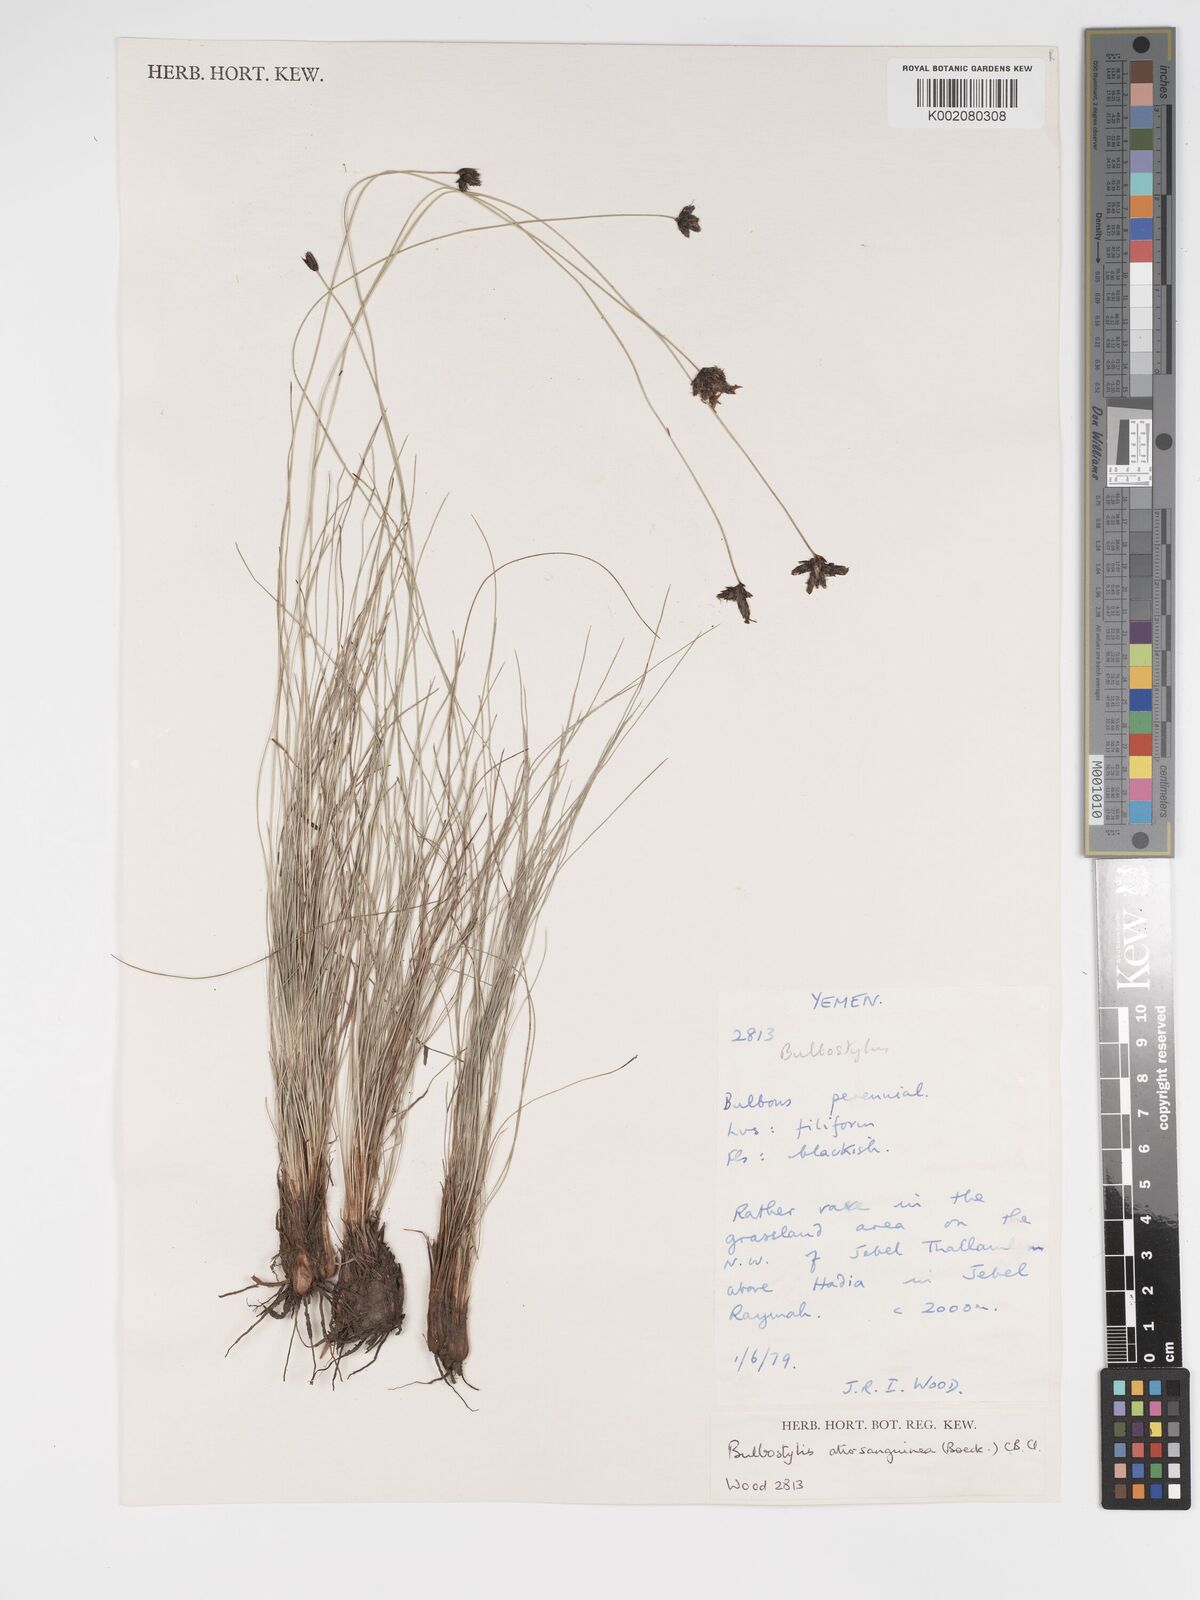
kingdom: Plantae
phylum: Tracheophyta
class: Liliopsida
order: Poales
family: Cyperaceae
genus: Bulbostylis
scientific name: Bulbostylis atrosanguinea
